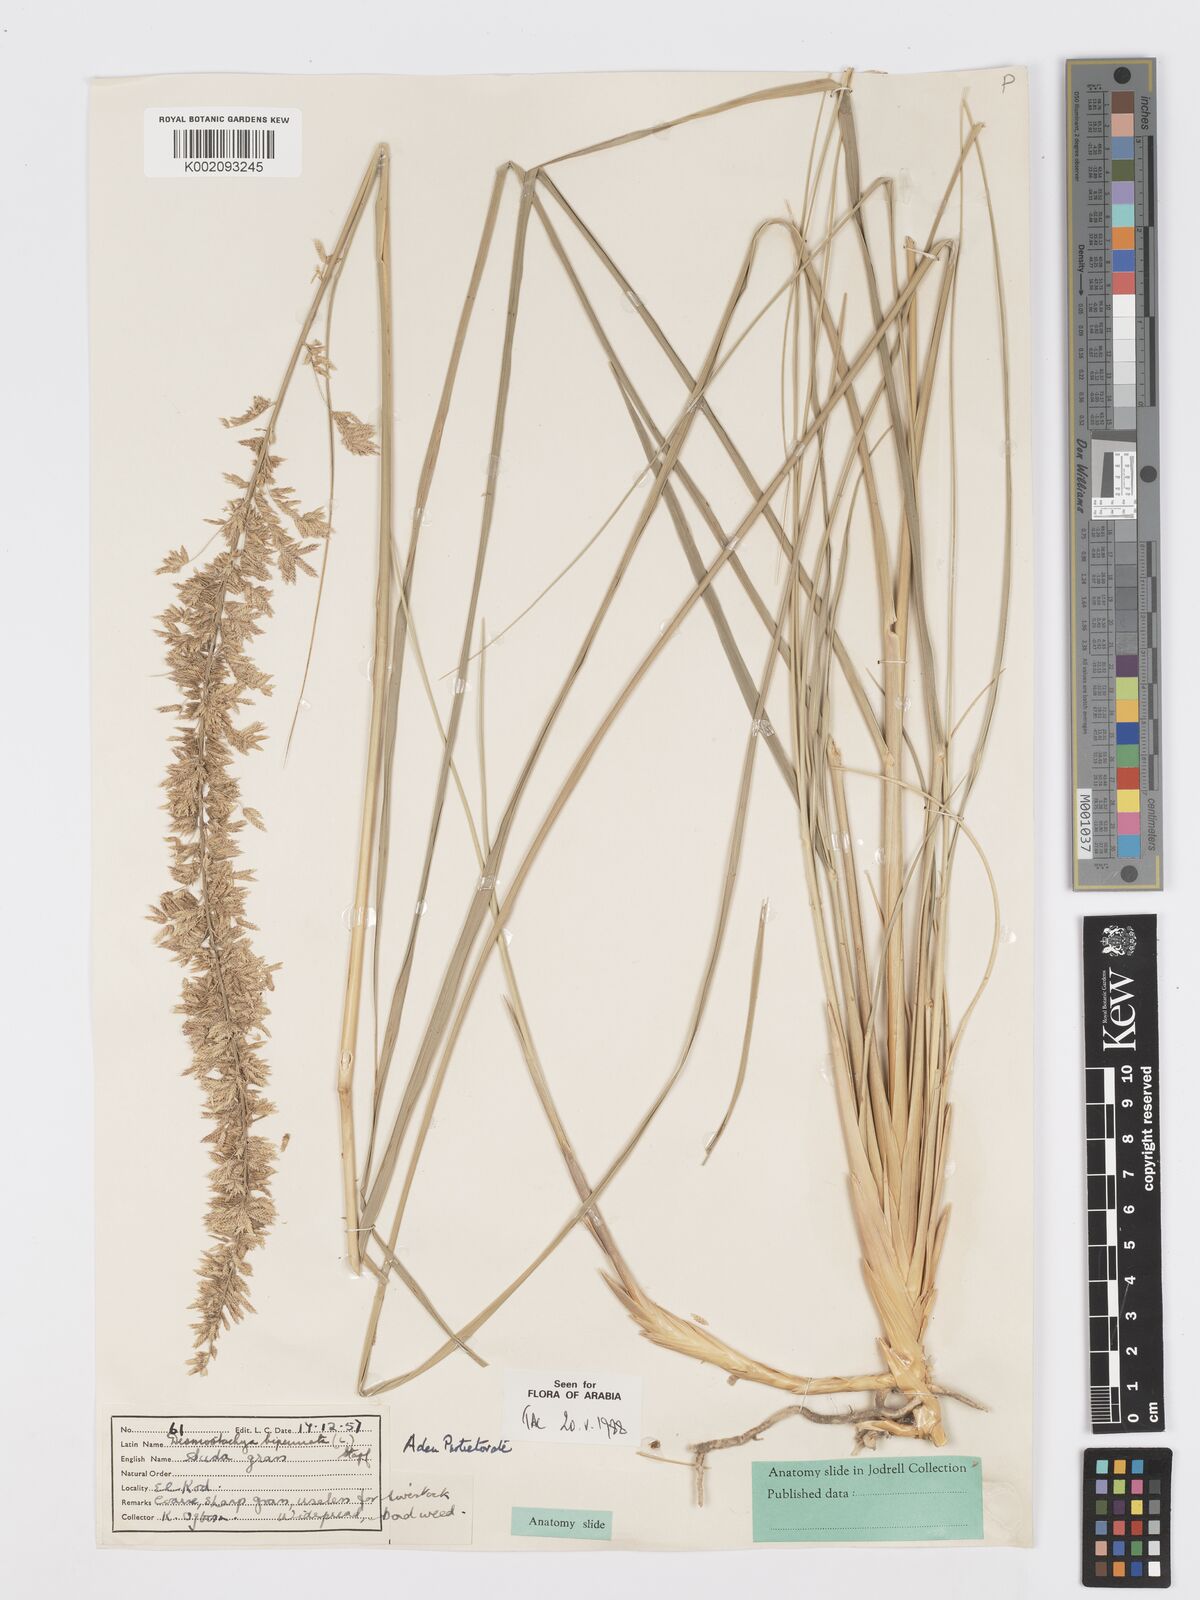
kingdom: Plantae
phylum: Tracheophyta
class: Liliopsida
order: Poales
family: Poaceae
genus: Desmostachya
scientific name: Desmostachya bipinnata
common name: Crowfoot grass
